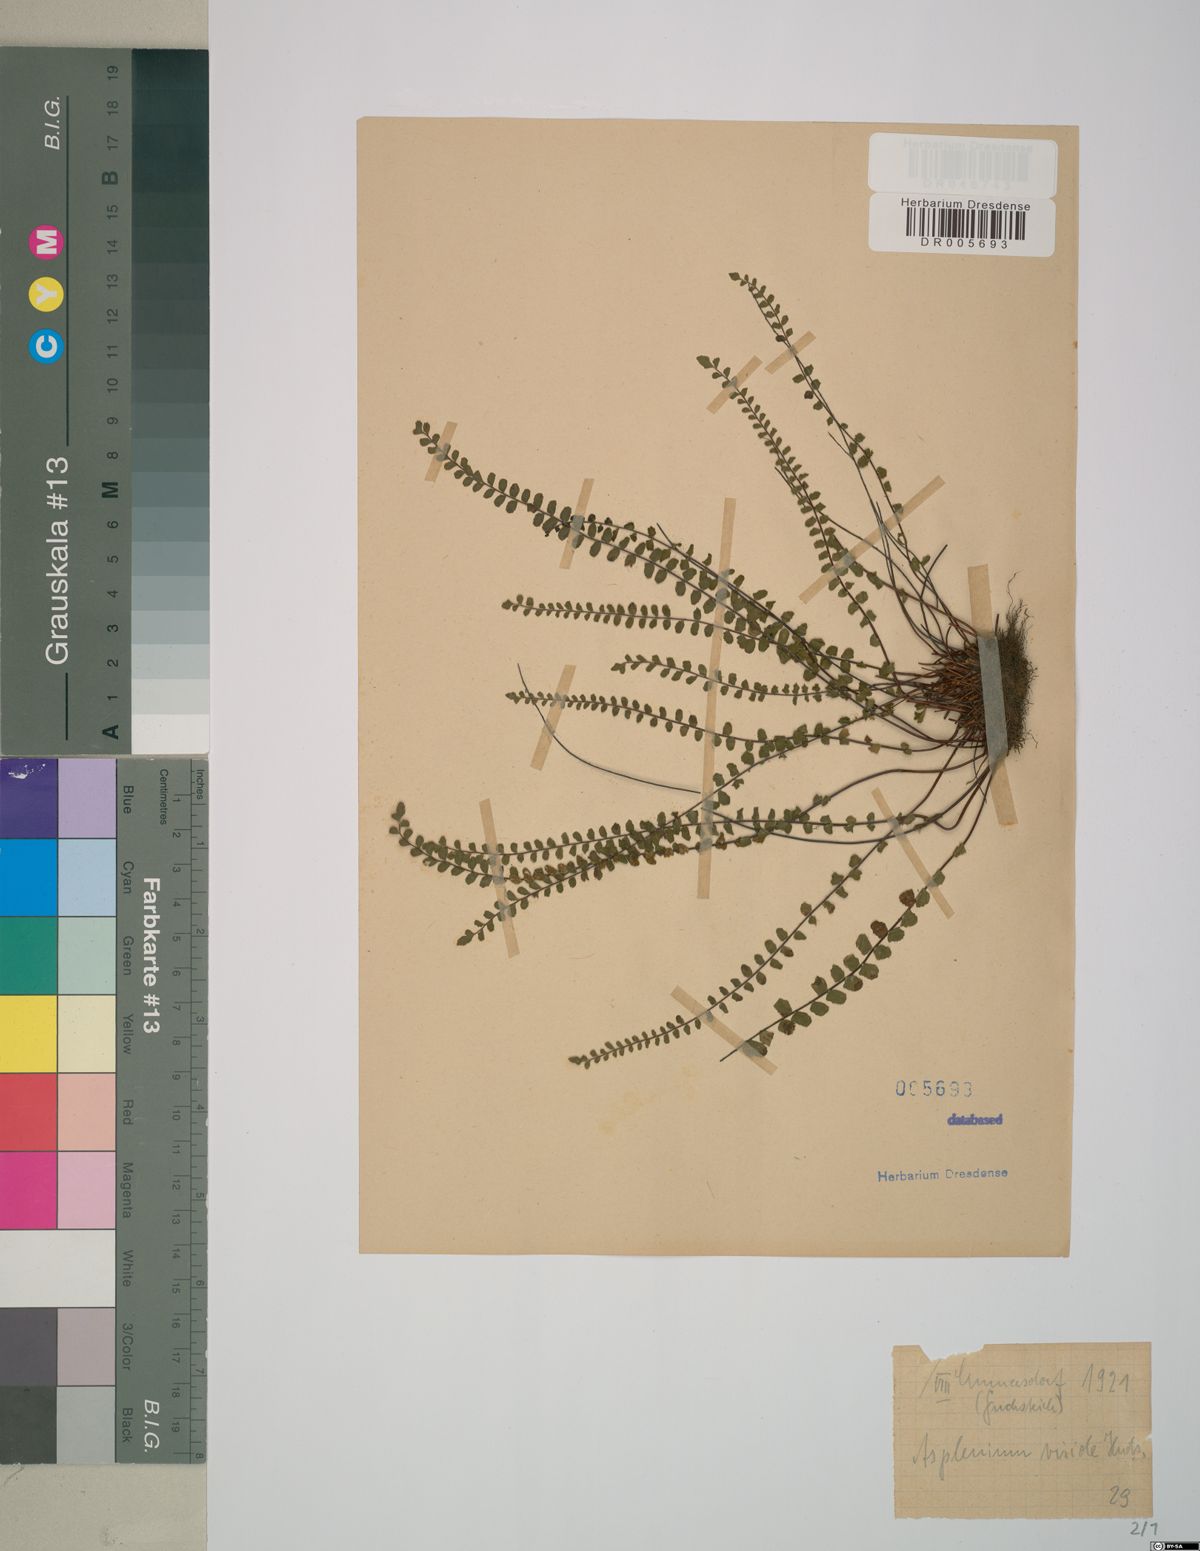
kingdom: Plantae
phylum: Tracheophyta
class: Polypodiopsida
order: Polypodiales
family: Aspleniaceae
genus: Asplenium
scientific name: Asplenium viride
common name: Green spleenwort
